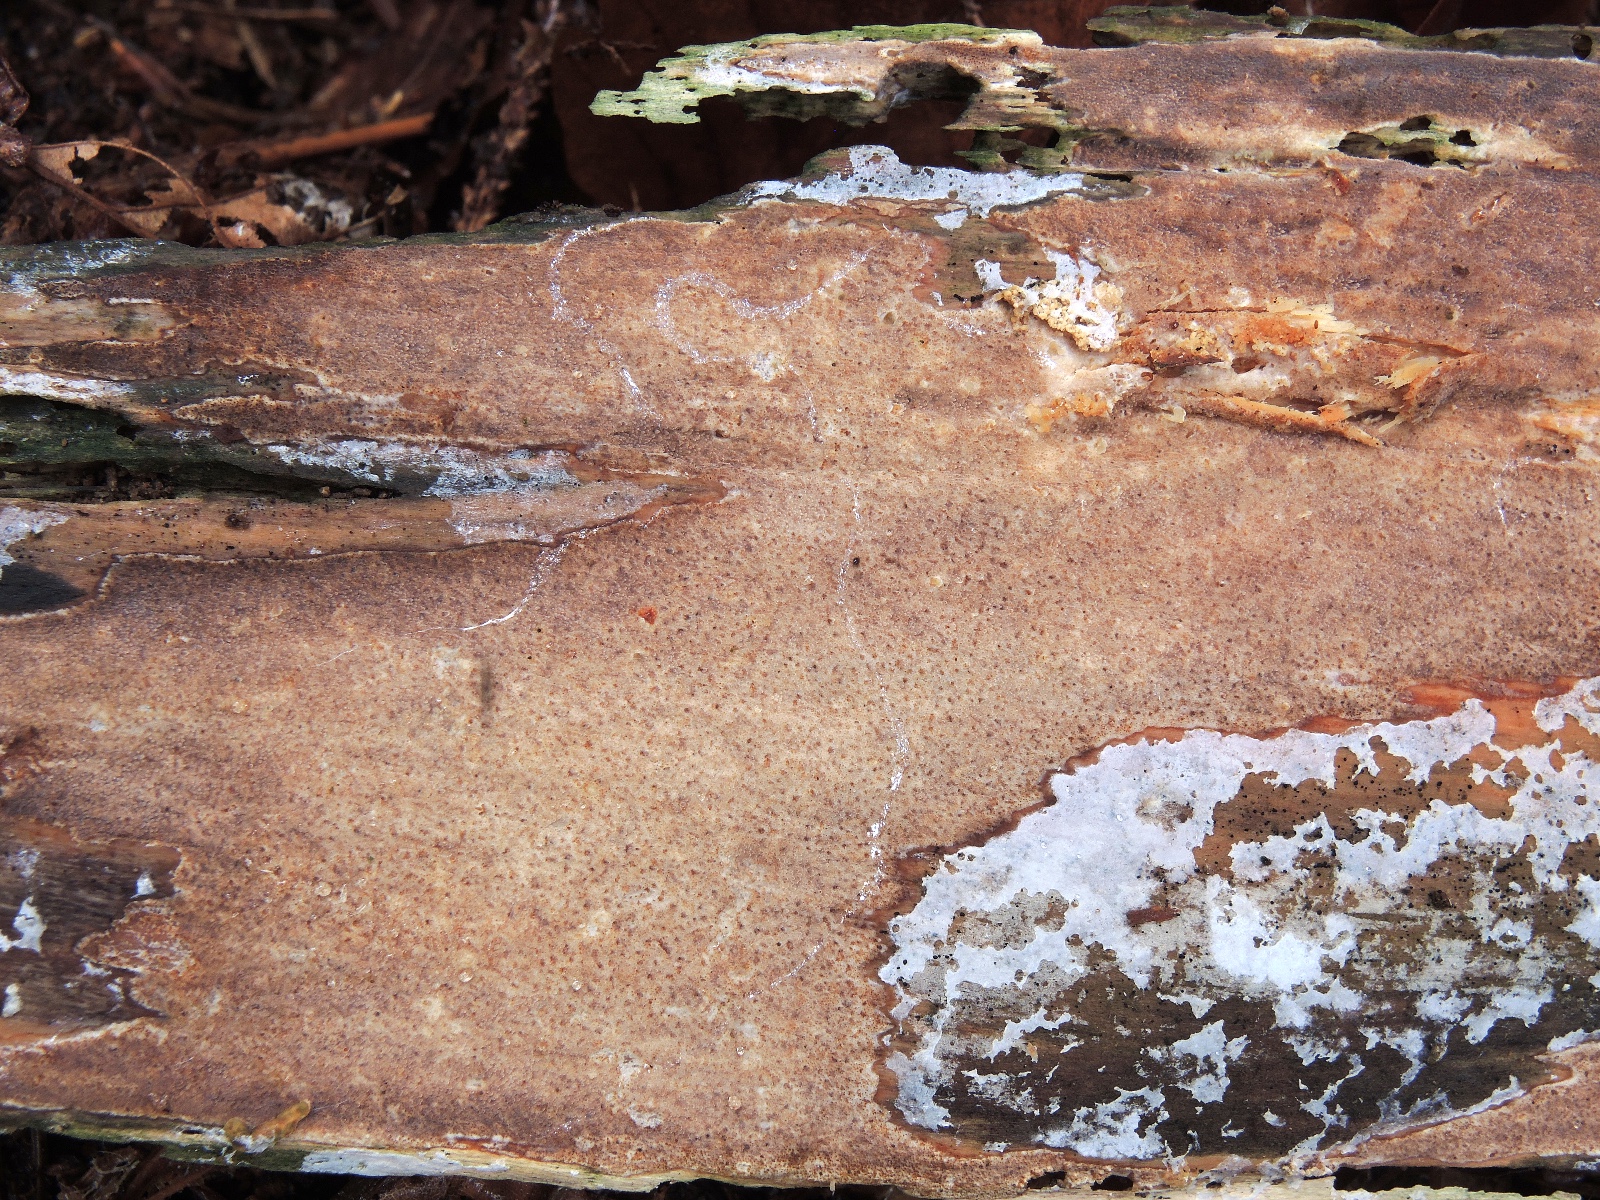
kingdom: Fungi
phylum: Basidiomycota
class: Agaricomycetes
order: Hymenochaetales
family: Rickenellaceae
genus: Resinicium
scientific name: Resinicium bicolor
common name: almindelig vokstand
